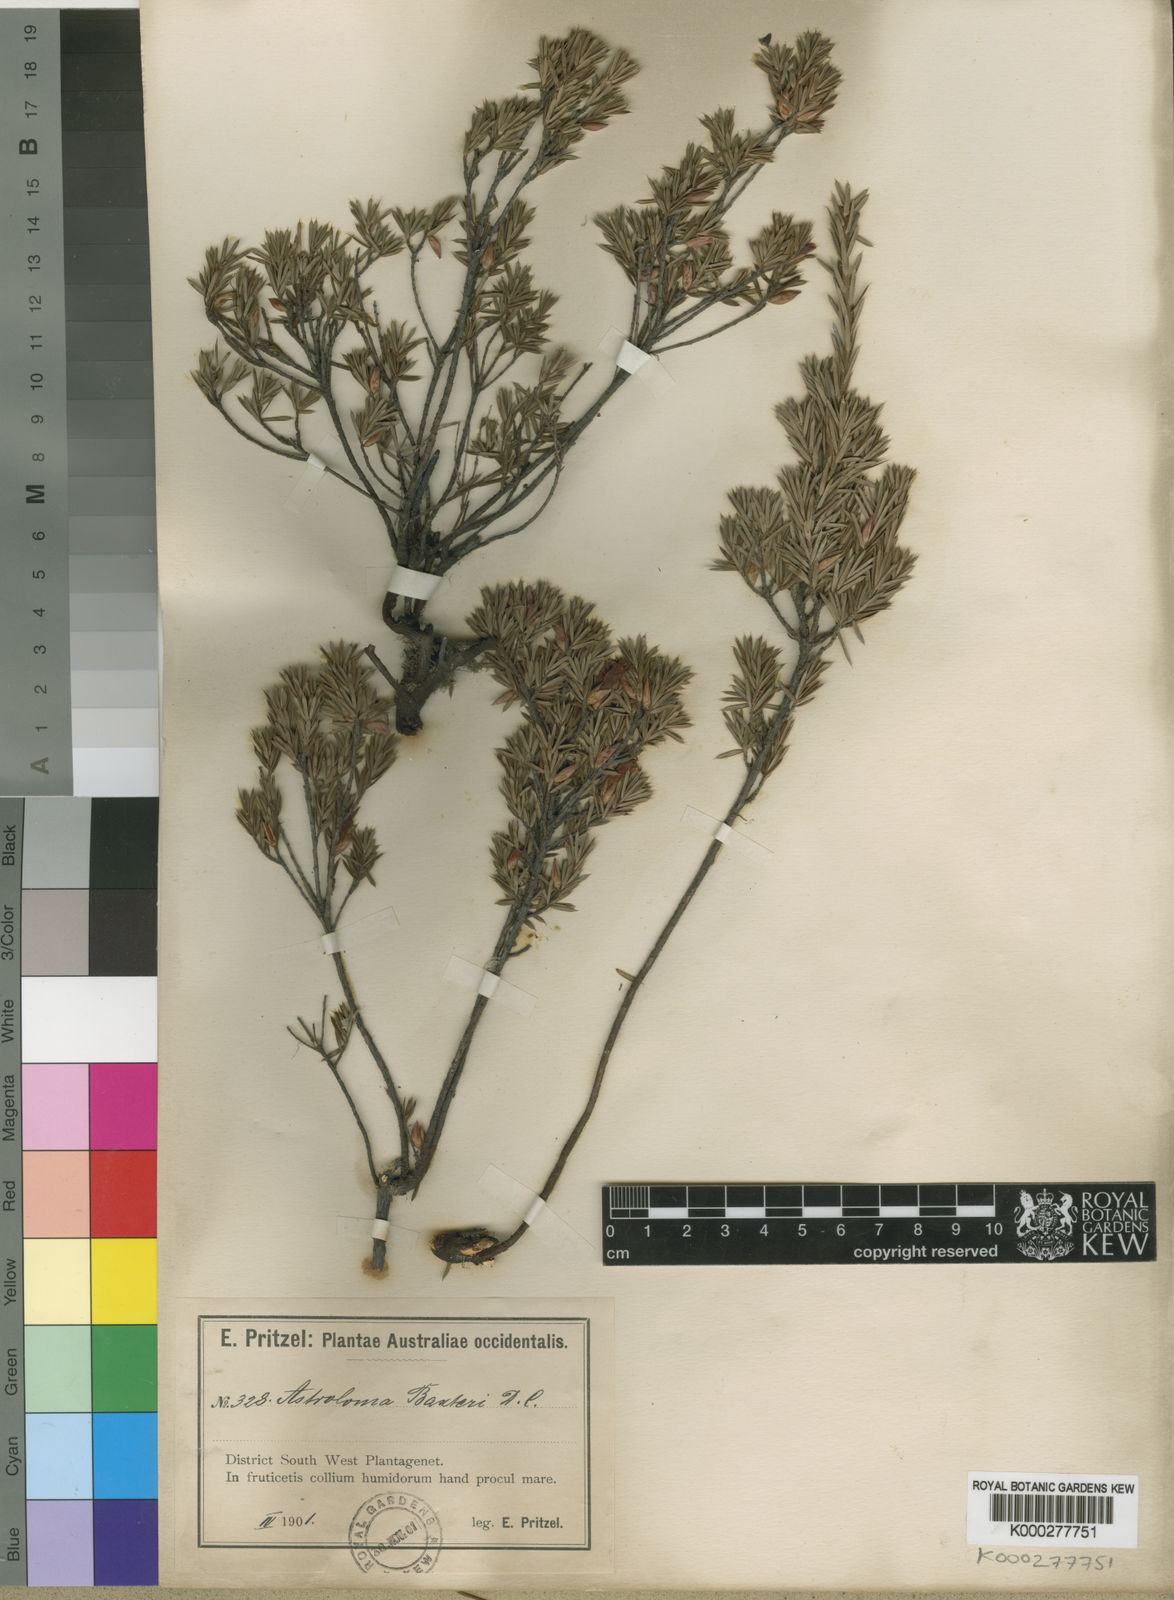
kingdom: Plantae
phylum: Tracheophyta
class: Magnoliopsida
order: Ericales
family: Ericaceae
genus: Brachyloma
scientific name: Brachyloma baxteri
